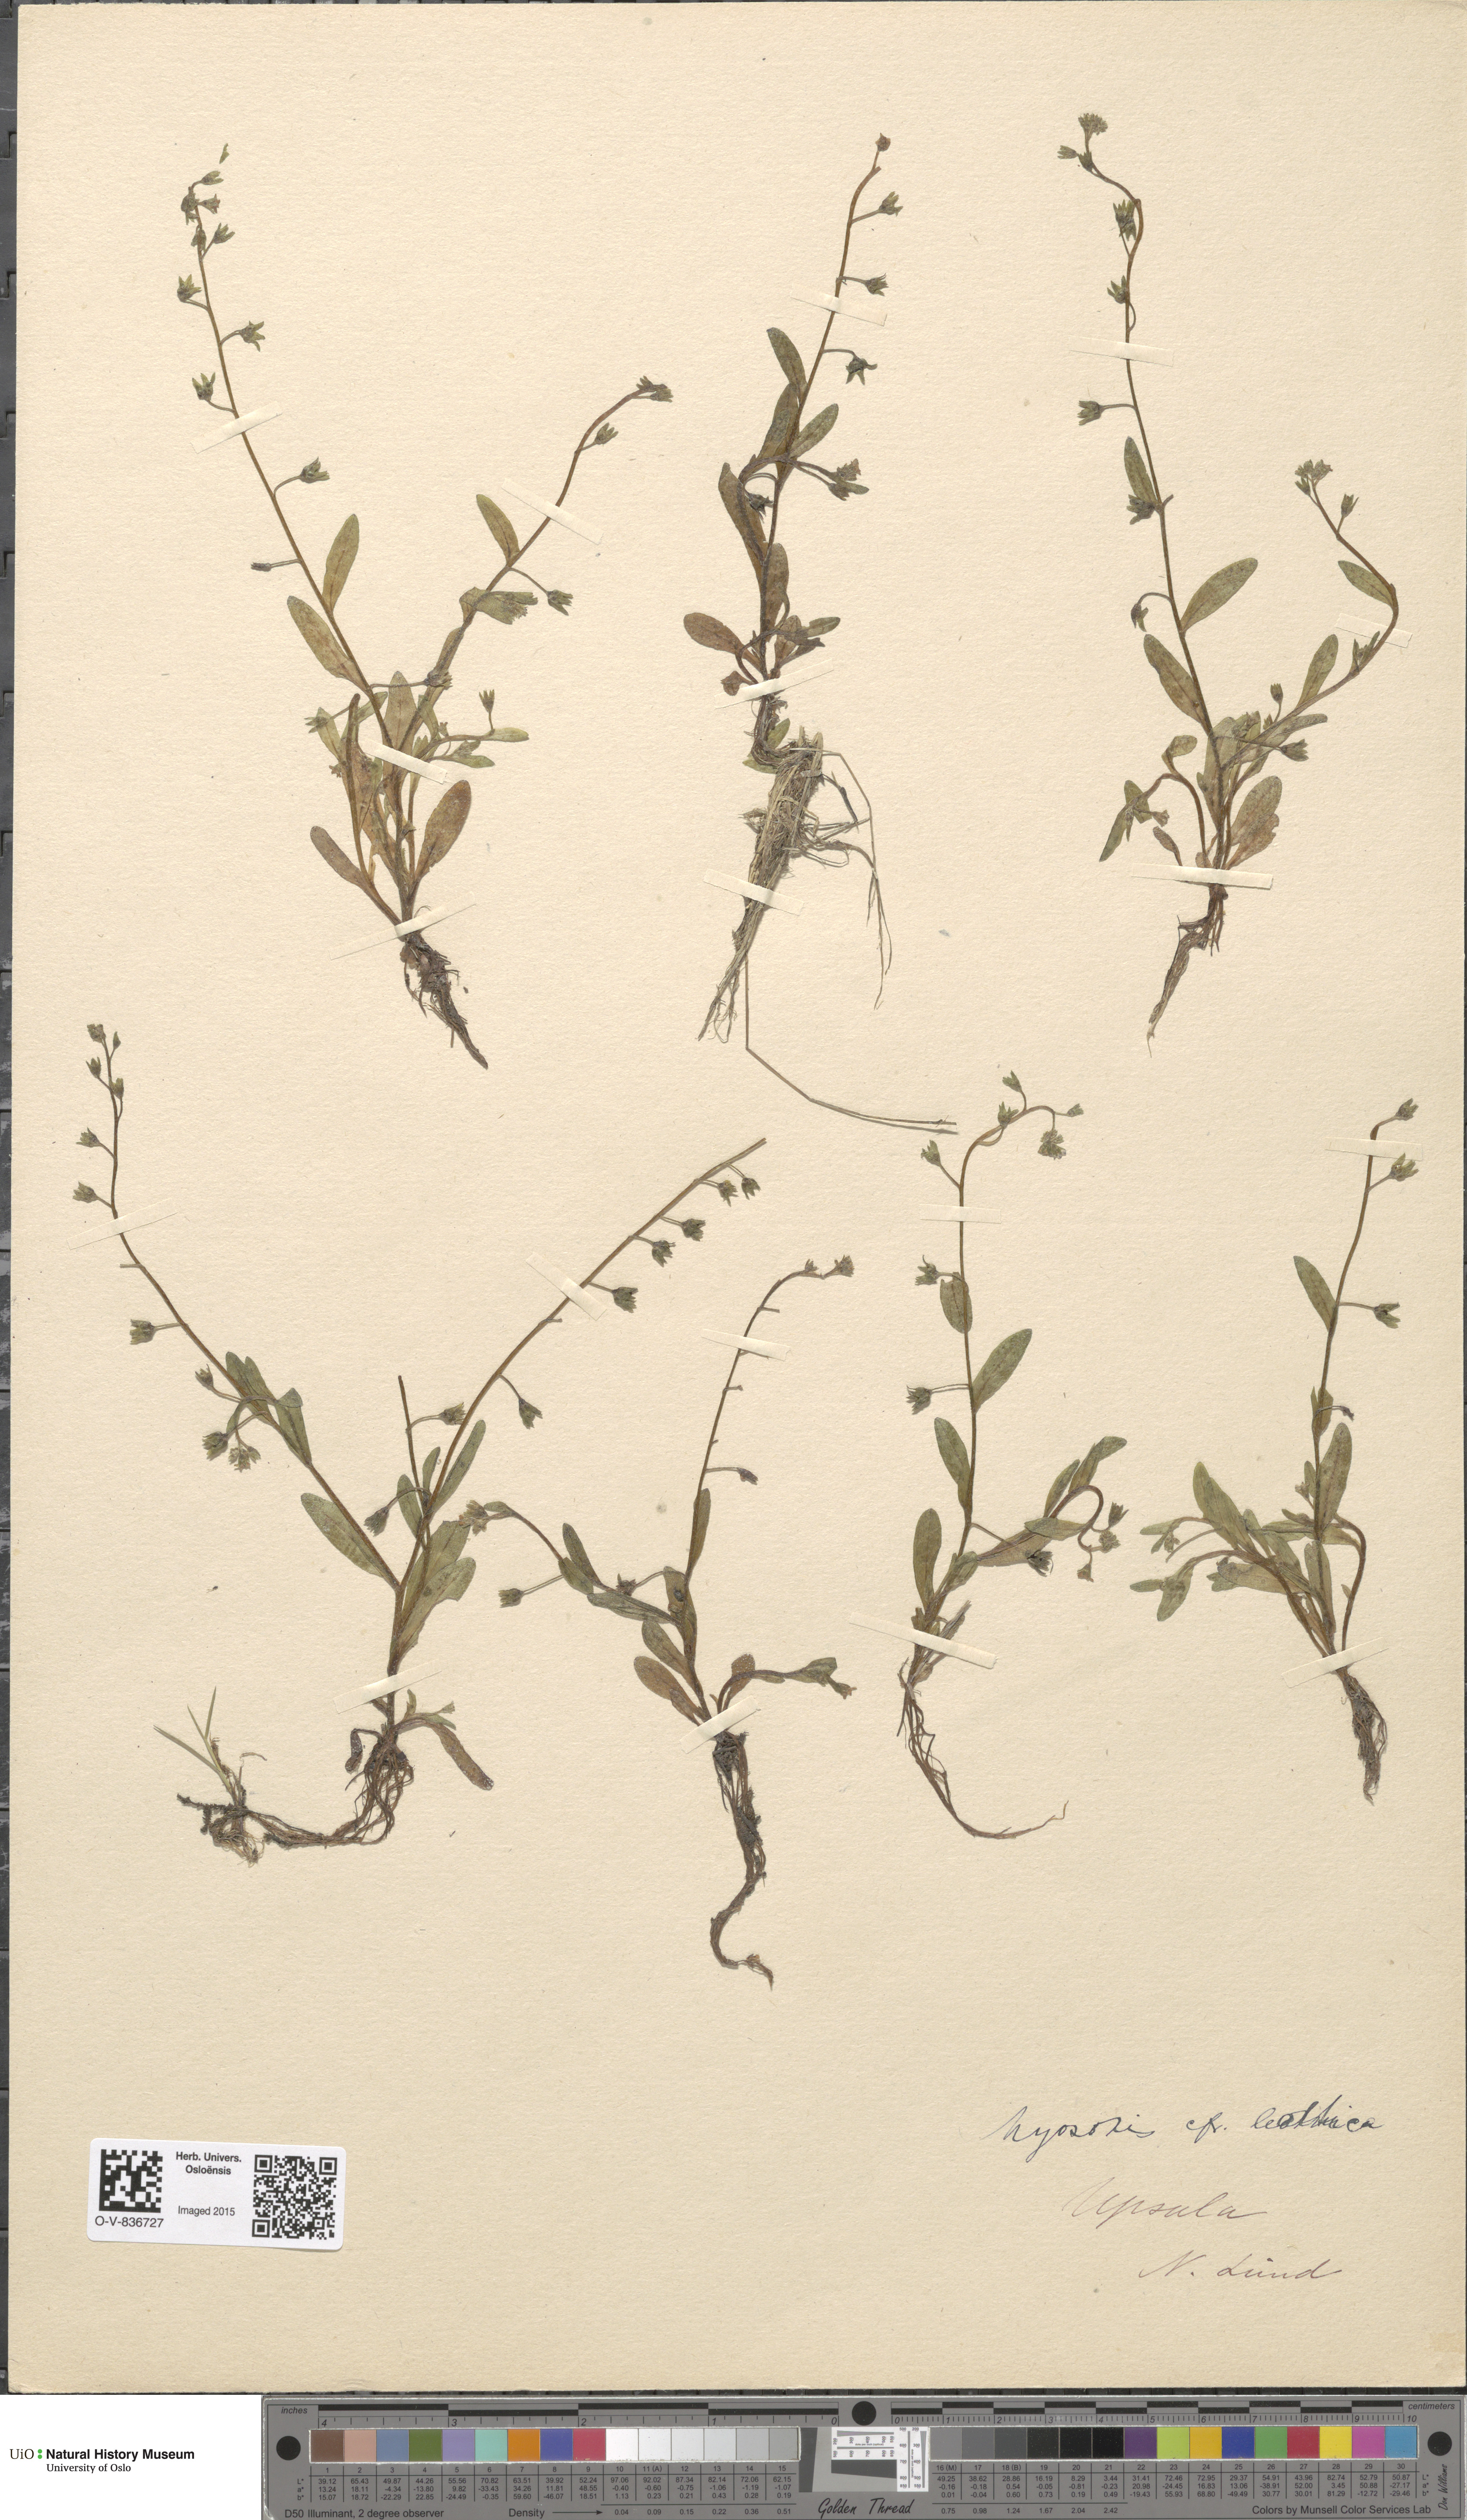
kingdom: Plantae
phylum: Tracheophyta
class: Magnoliopsida
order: Boraginales
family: Boraginaceae
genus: Myosotis
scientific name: Myosotis laxa
